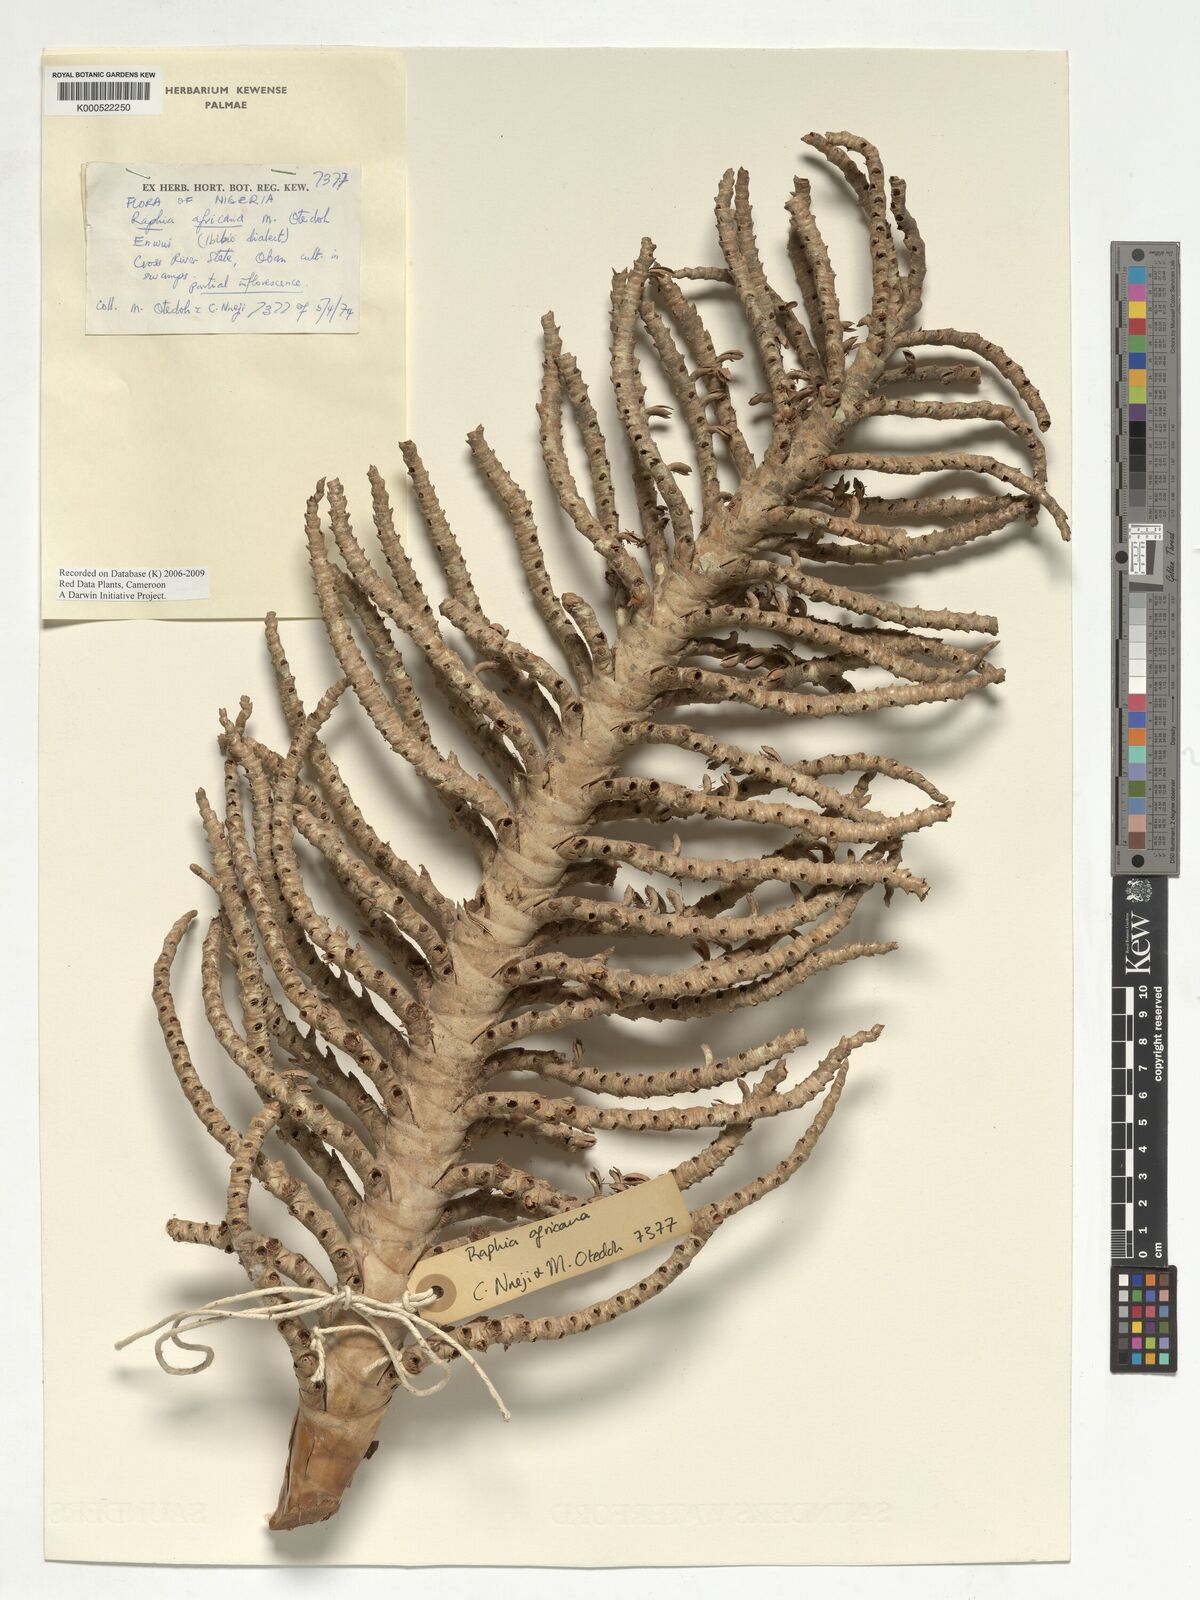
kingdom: Plantae
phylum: Tracheophyta
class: Liliopsida
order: Arecales
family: Arecaceae
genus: Raphia
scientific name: Raphia africana
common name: Raphia palm
